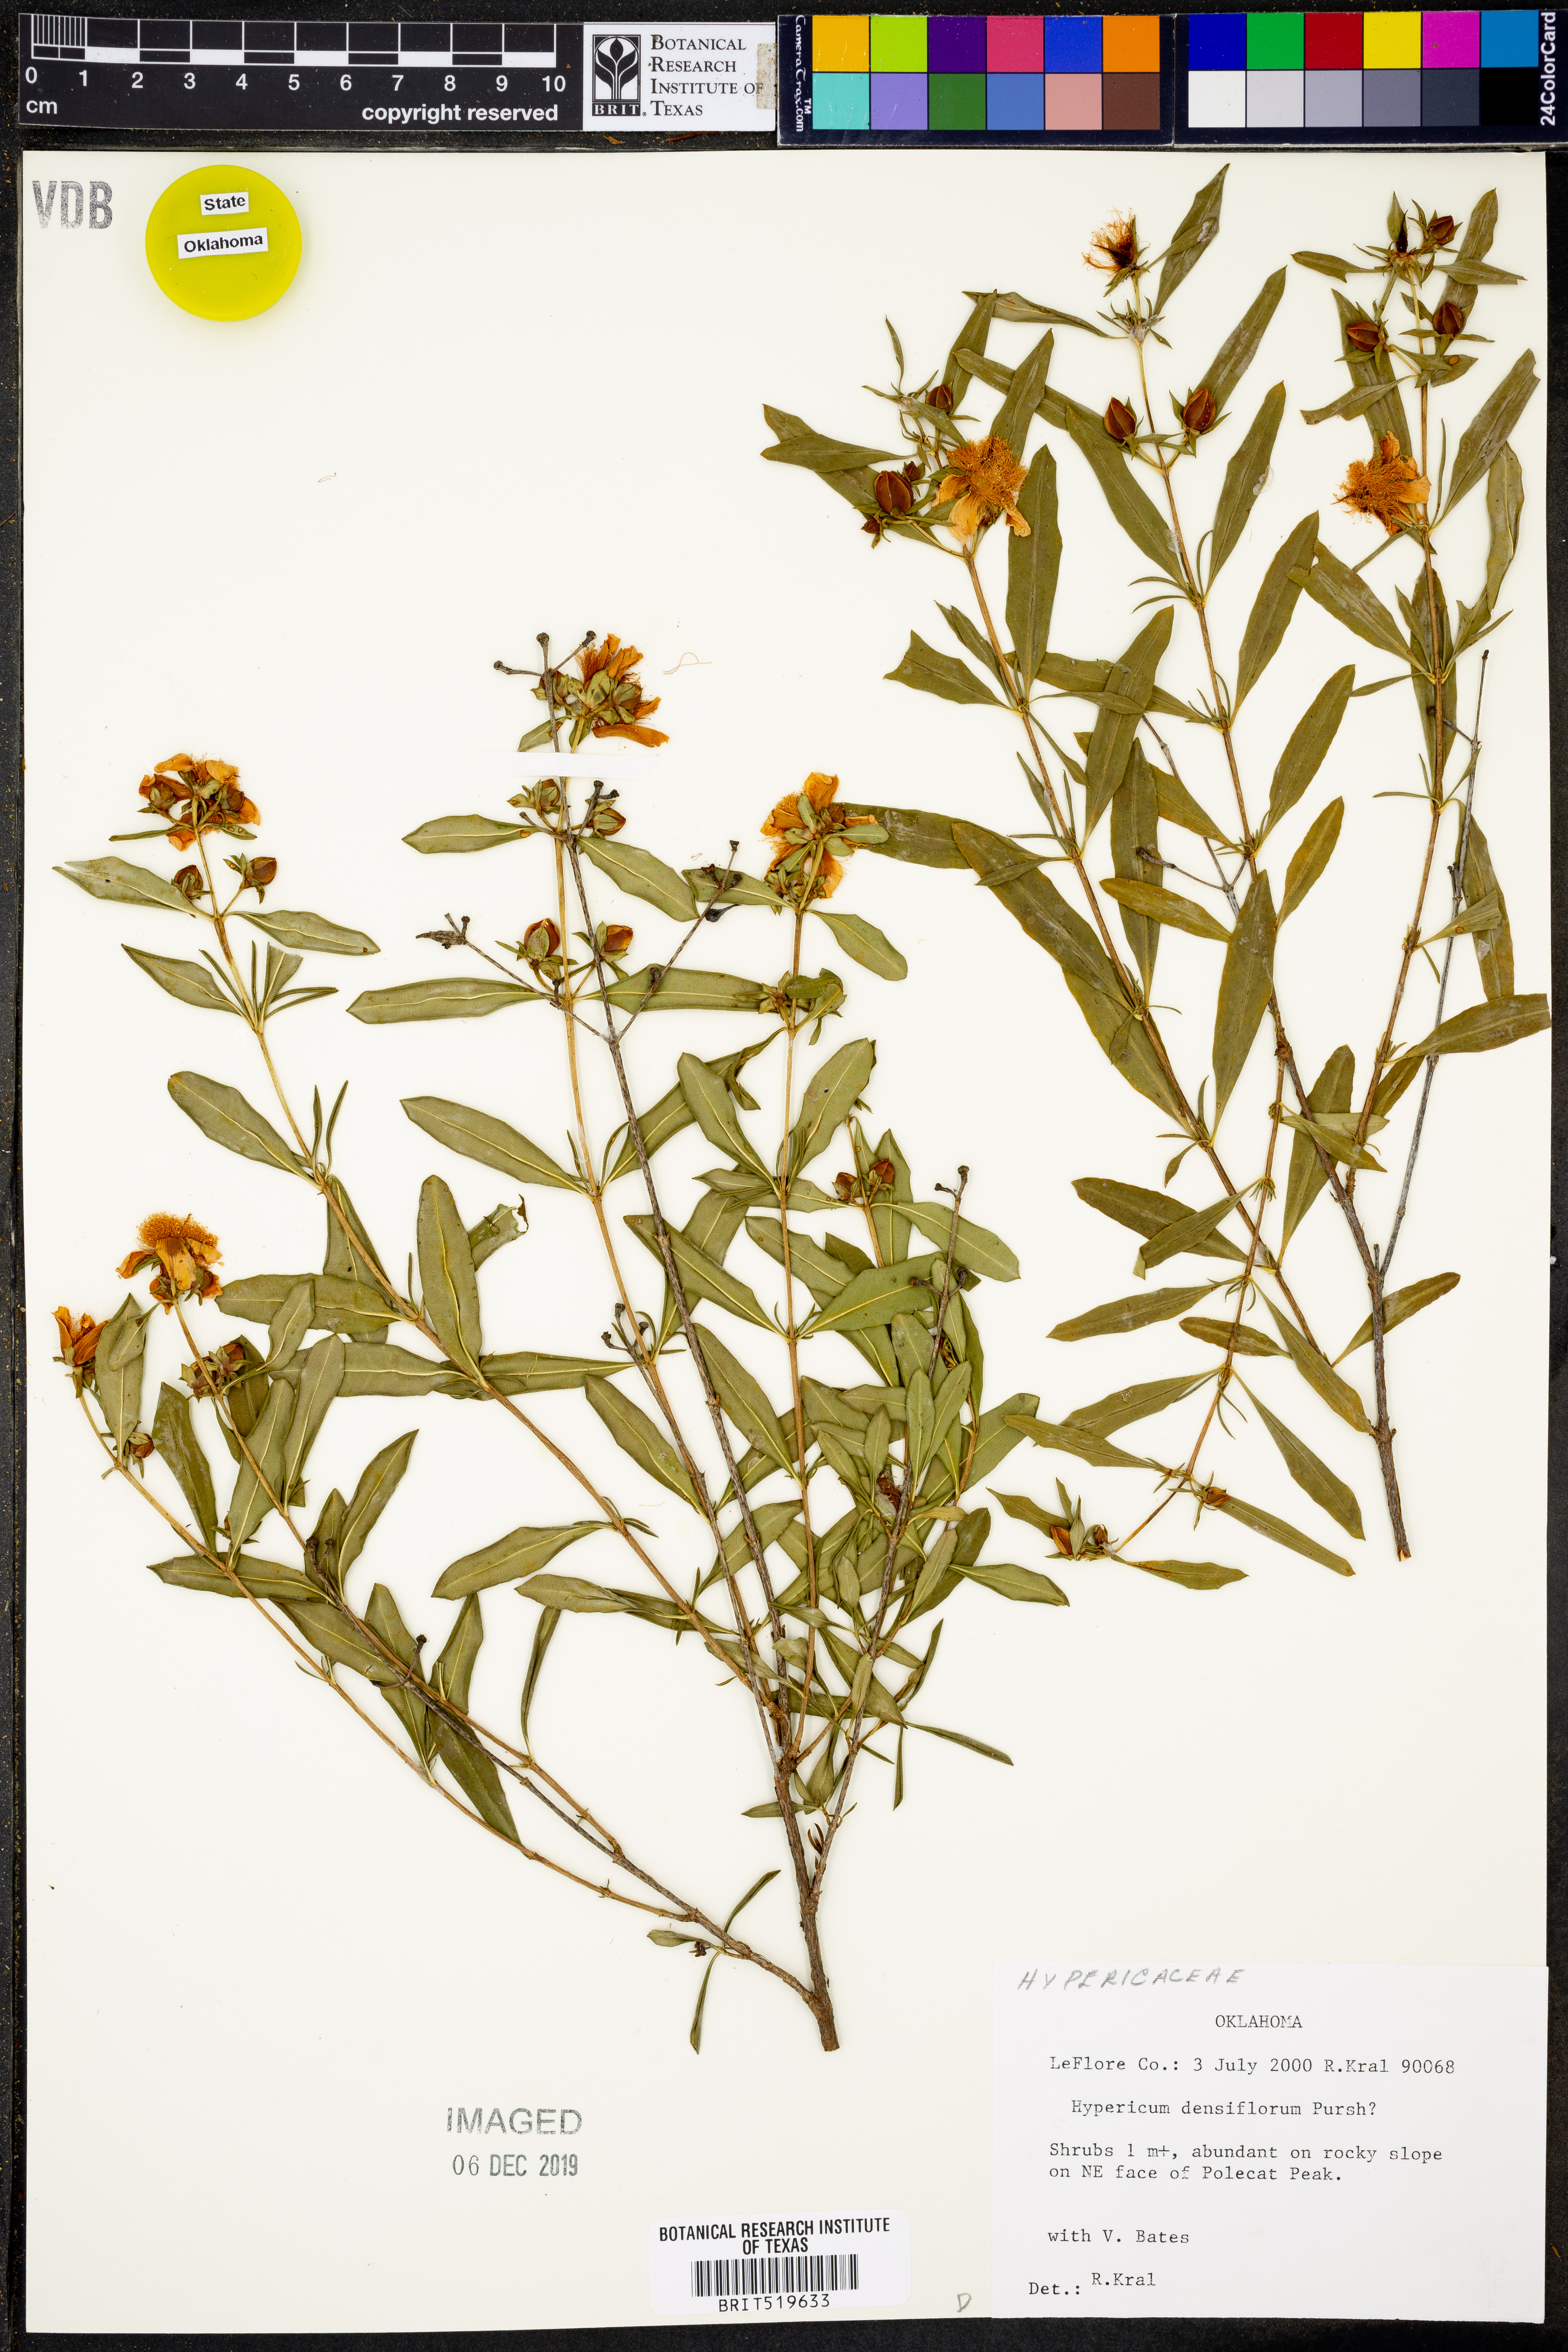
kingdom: Plantae
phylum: Tracheophyta
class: Magnoliopsida
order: Malpighiales
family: Hypericaceae
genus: Hypericum
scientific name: Hypericum densiflorum
